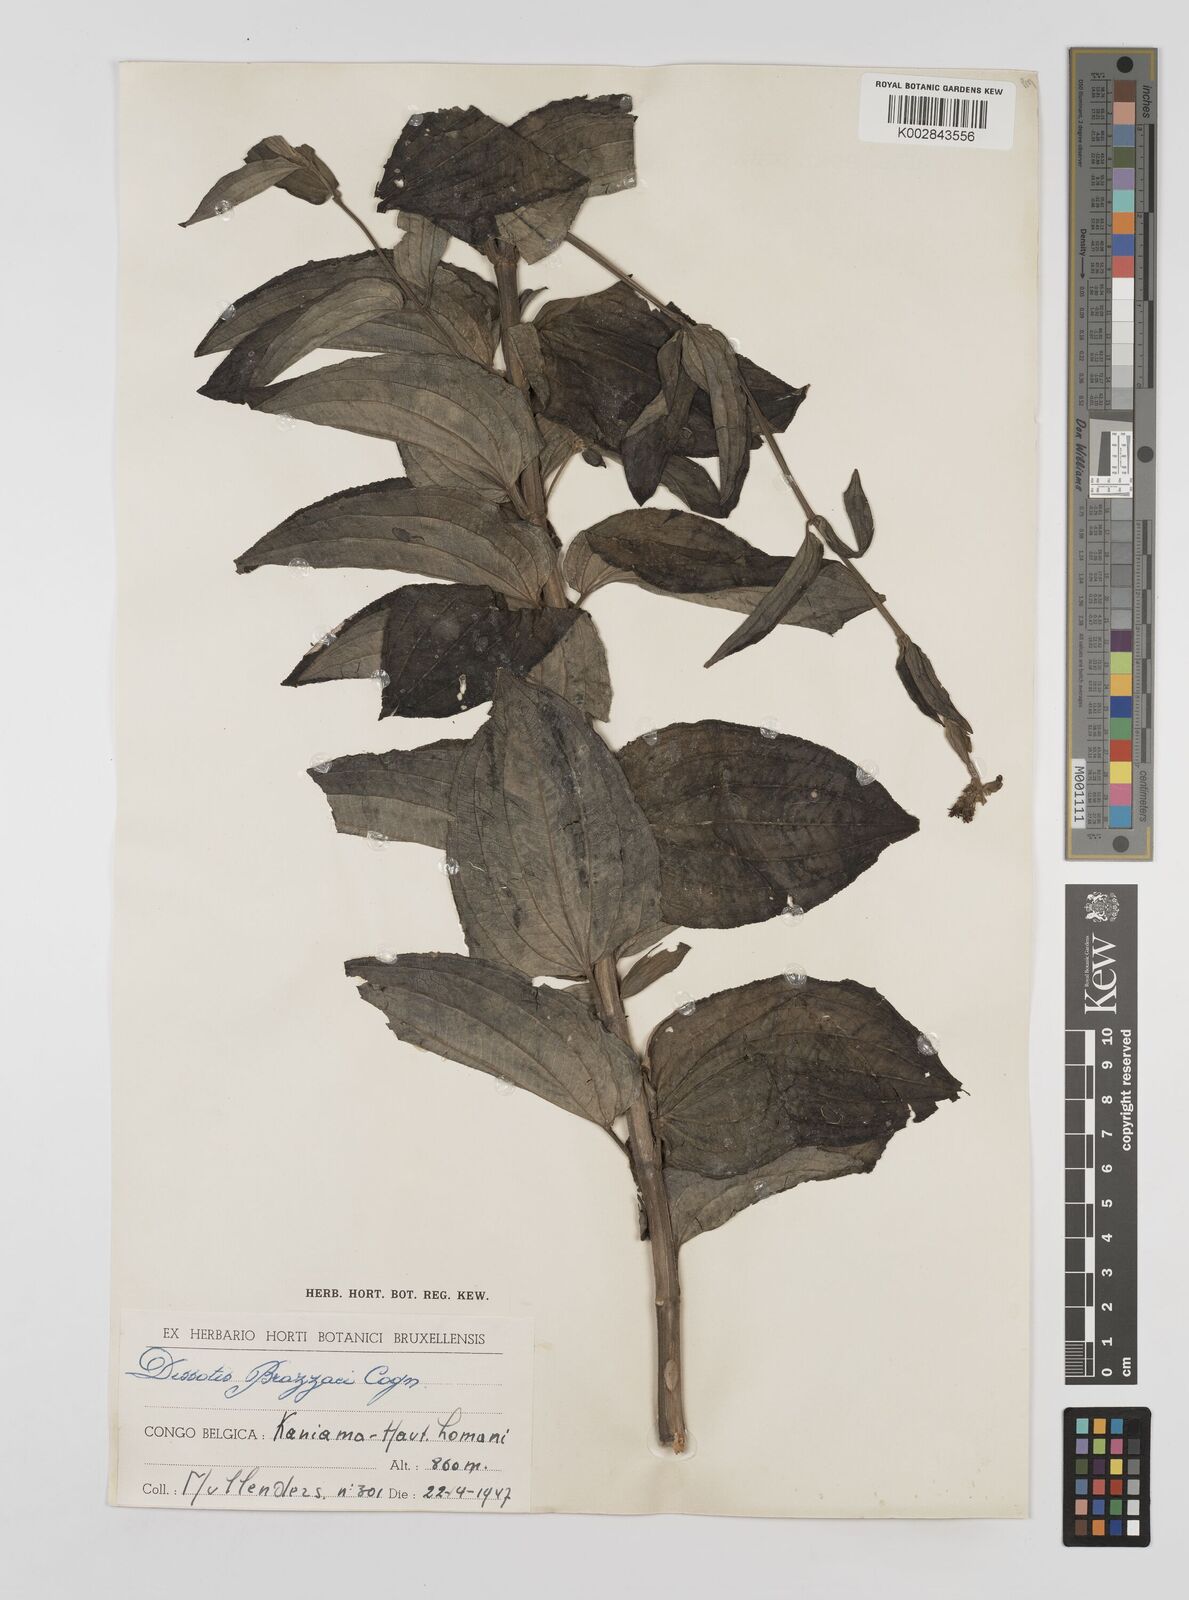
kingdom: Plantae
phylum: Tracheophyta
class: Magnoliopsida
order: Myrtales
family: Melastomataceae
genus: Dupineta
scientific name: Dupineta brazzae
